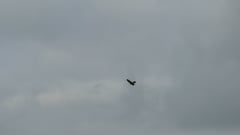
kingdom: Animalia
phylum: Chordata
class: Aves
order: Falconiformes
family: Falconidae
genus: Falco
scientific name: Falco tinnunculus
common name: Common kestrel
